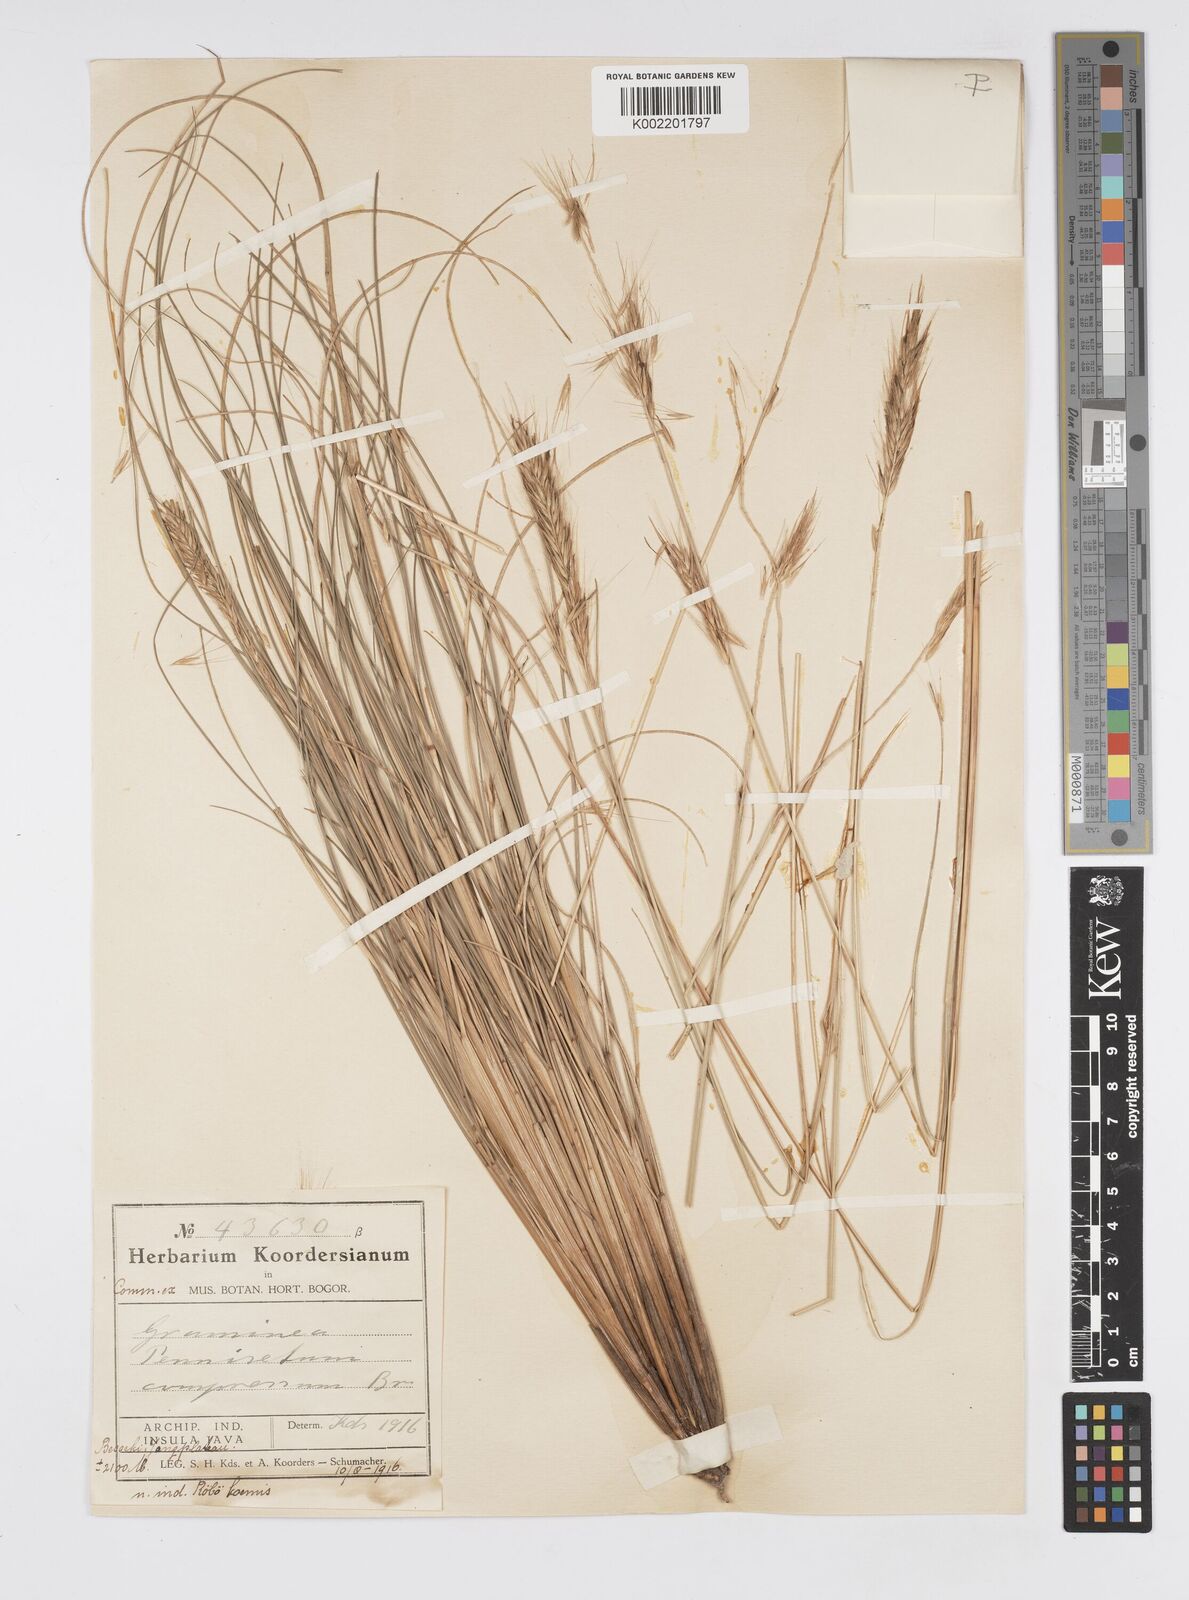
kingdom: Plantae
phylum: Tracheophyta
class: Liliopsida
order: Poales
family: Poaceae
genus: Cenchrus
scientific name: Cenchrus alopecuroides
